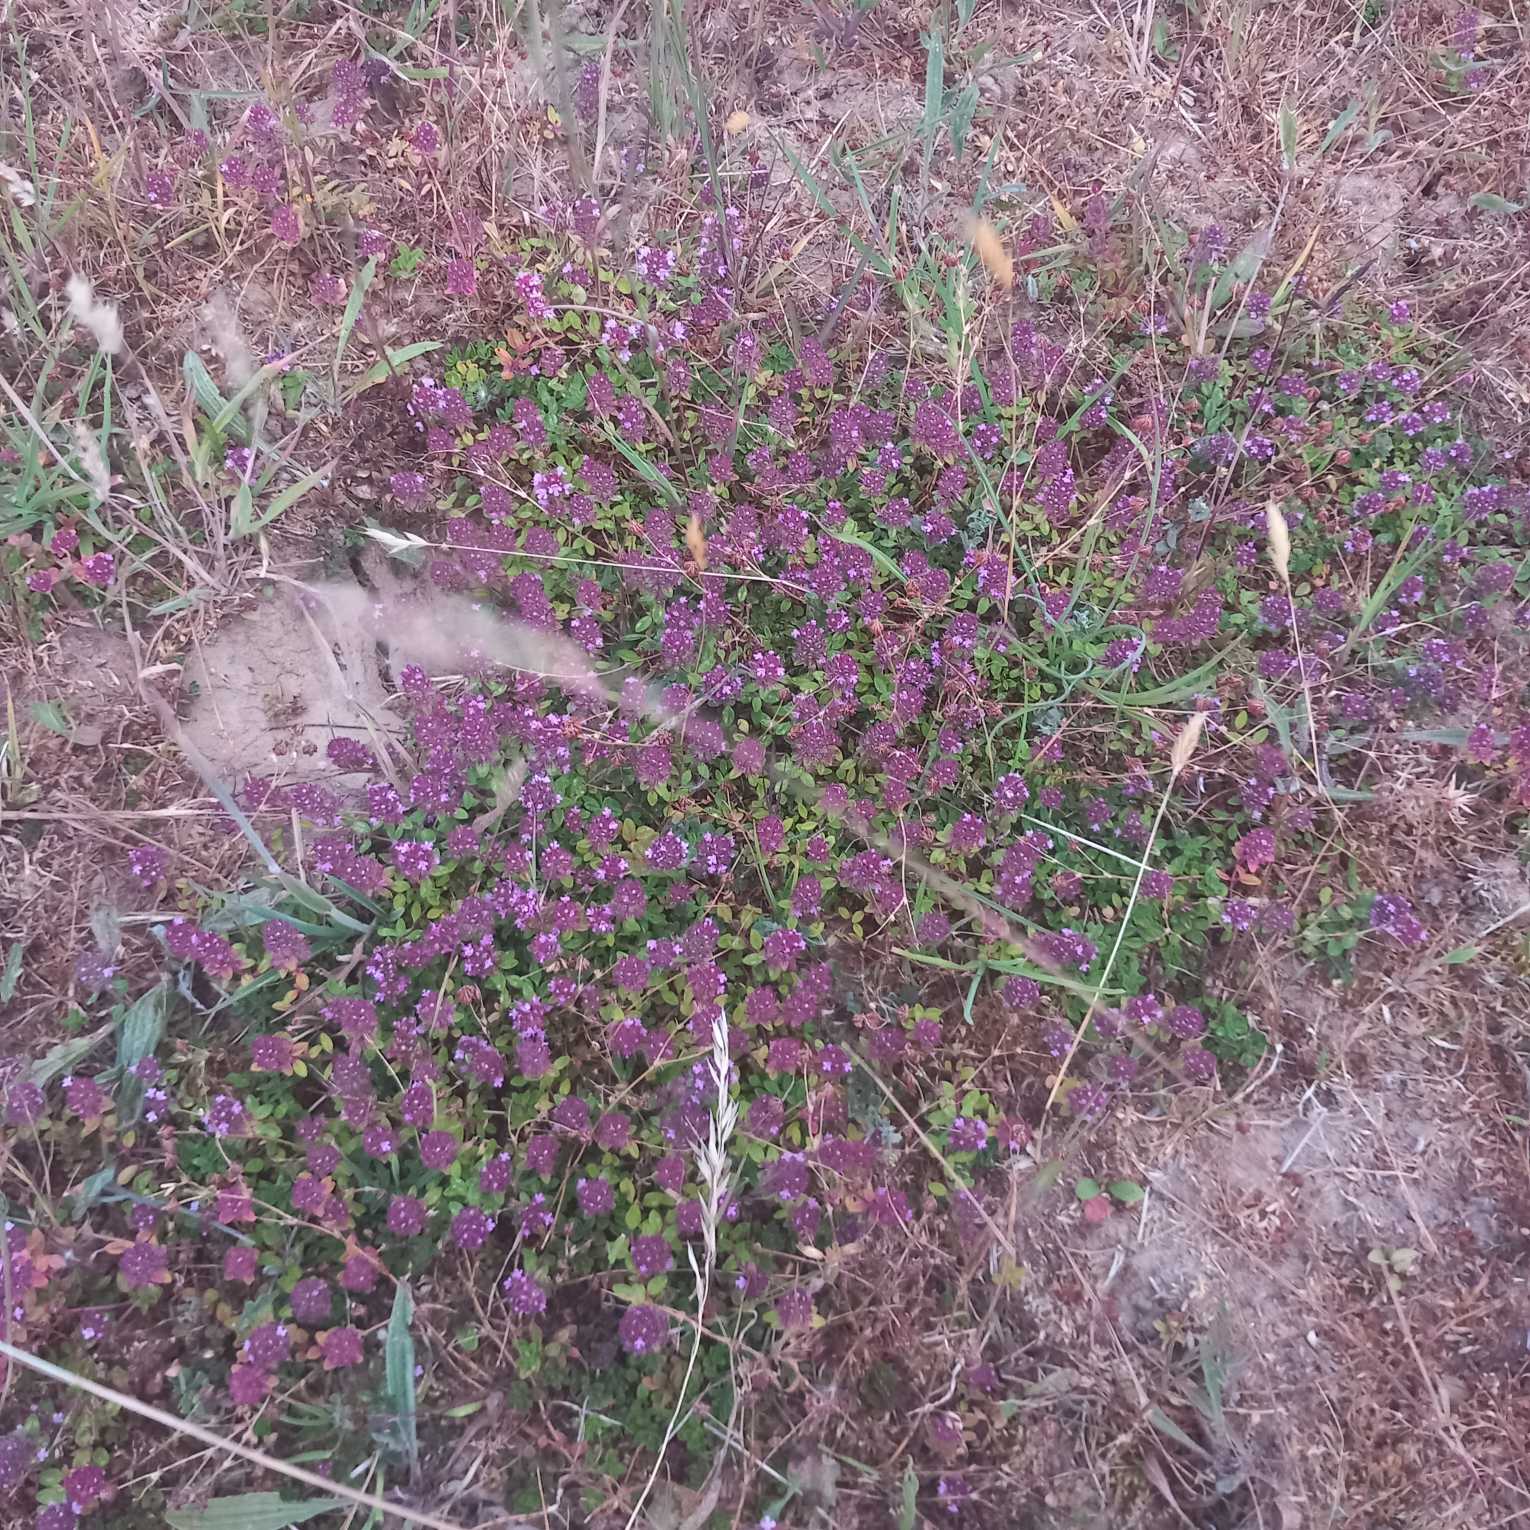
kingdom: Plantae
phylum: Tracheophyta
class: Magnoliopsida
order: Lamiales
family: Lamiaceae
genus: Thymus
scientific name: Thymus pulegioides
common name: Bredbladet timian
